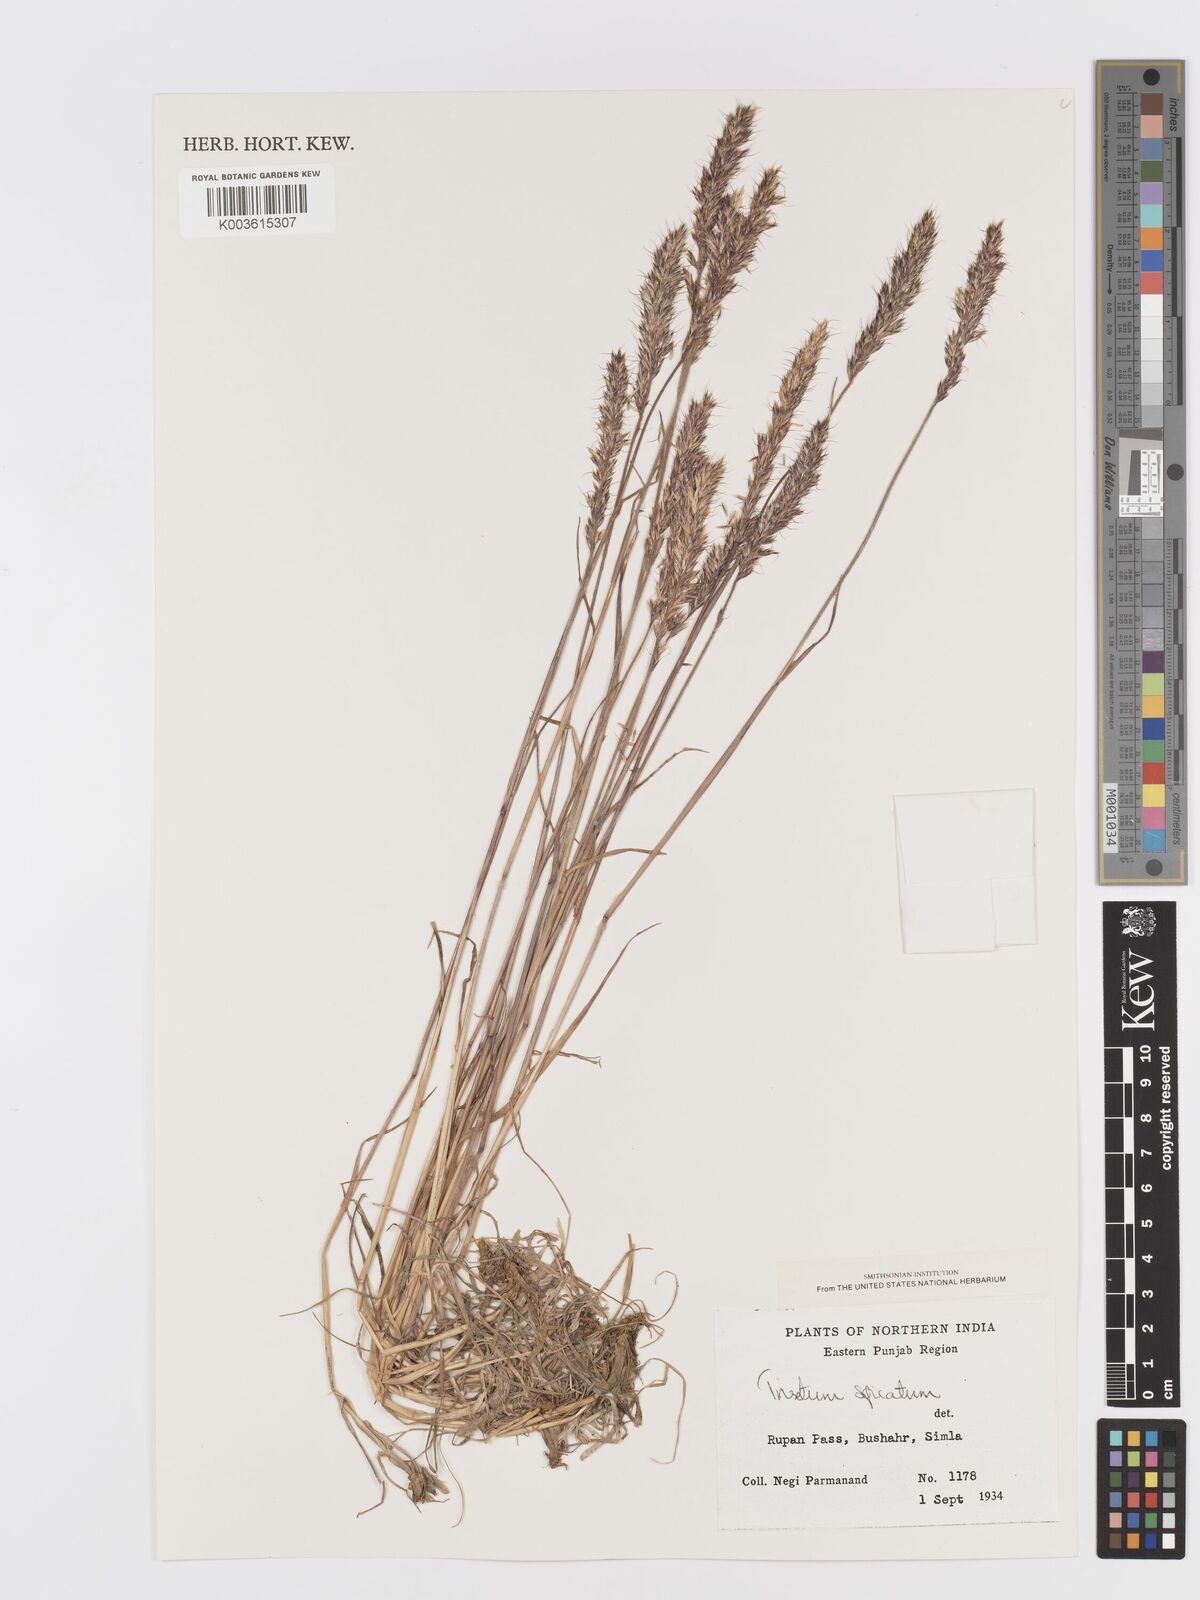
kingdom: Plantae
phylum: Tracheophyta
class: Liliopsida
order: Poales
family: Poaceae
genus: Koeleria
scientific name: Koeleria spicata
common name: Mountain trisetum
